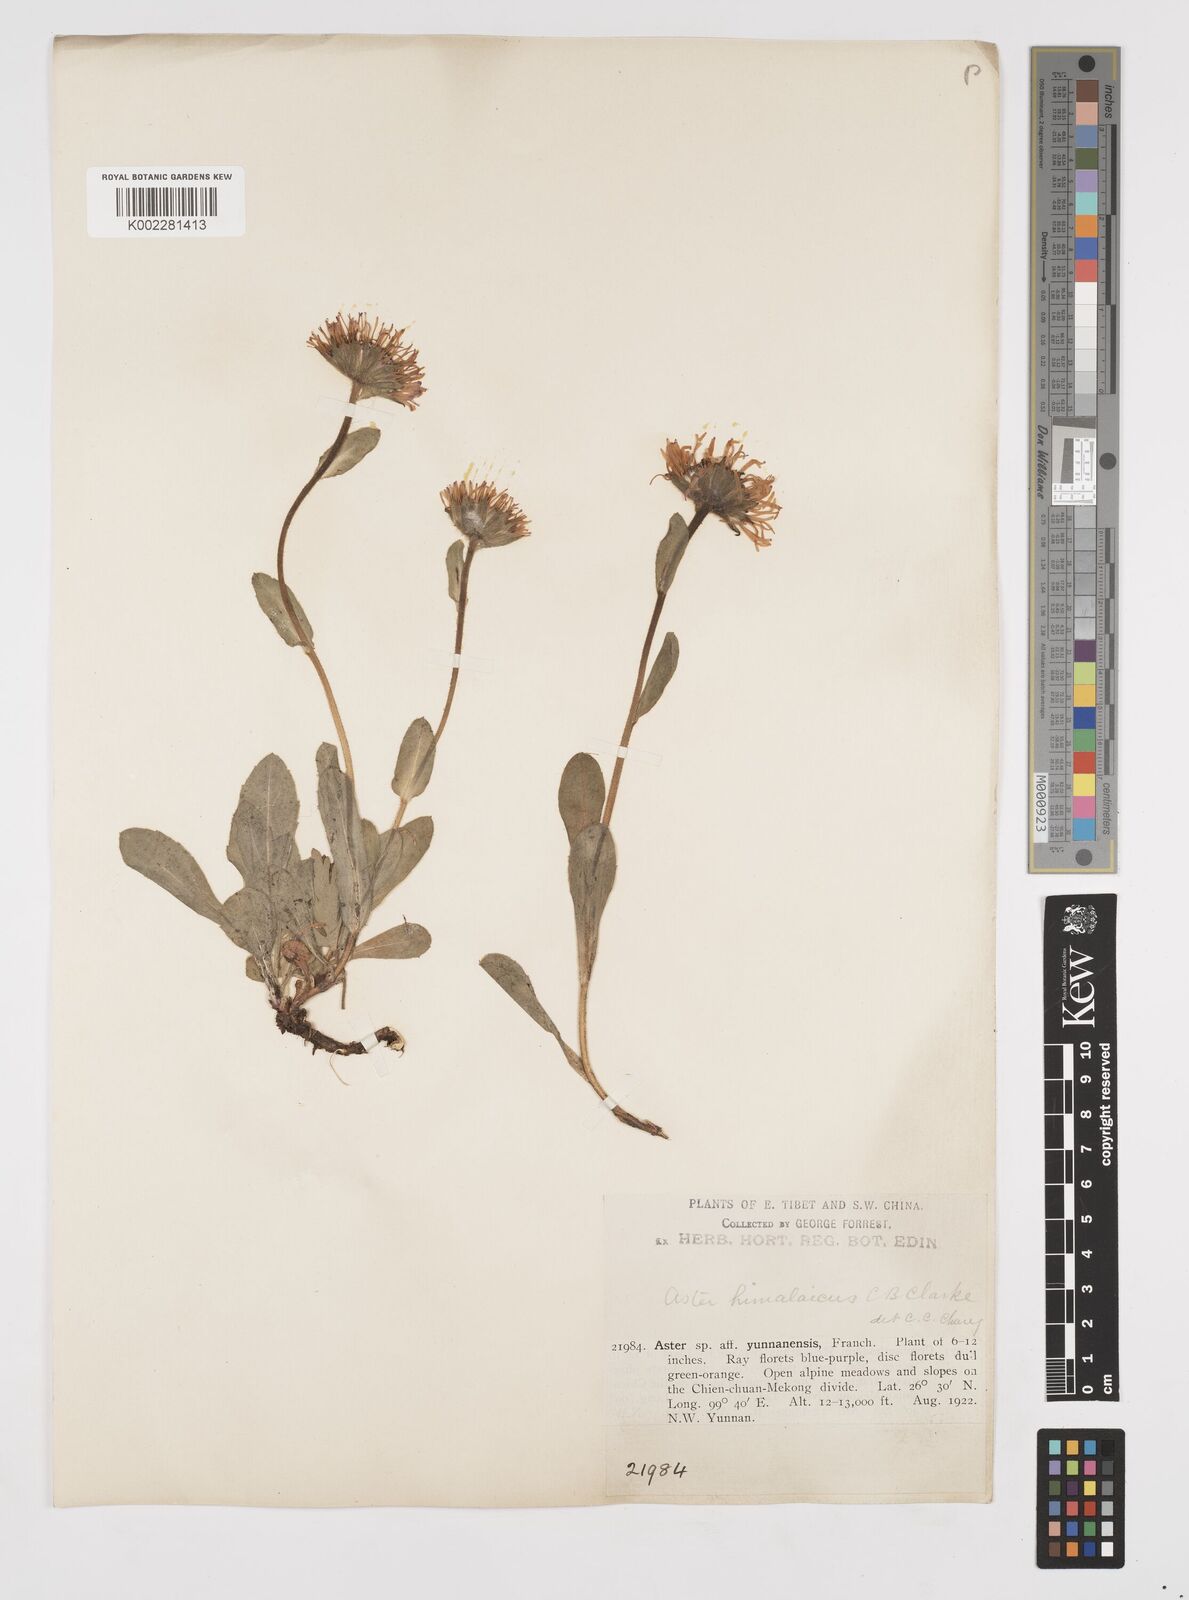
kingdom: Plantae
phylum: Tracheophyta
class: Magnoliopsida
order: Asterales
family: Asteraceae
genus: Tibetiodes
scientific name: Tibetiodes himalaica
